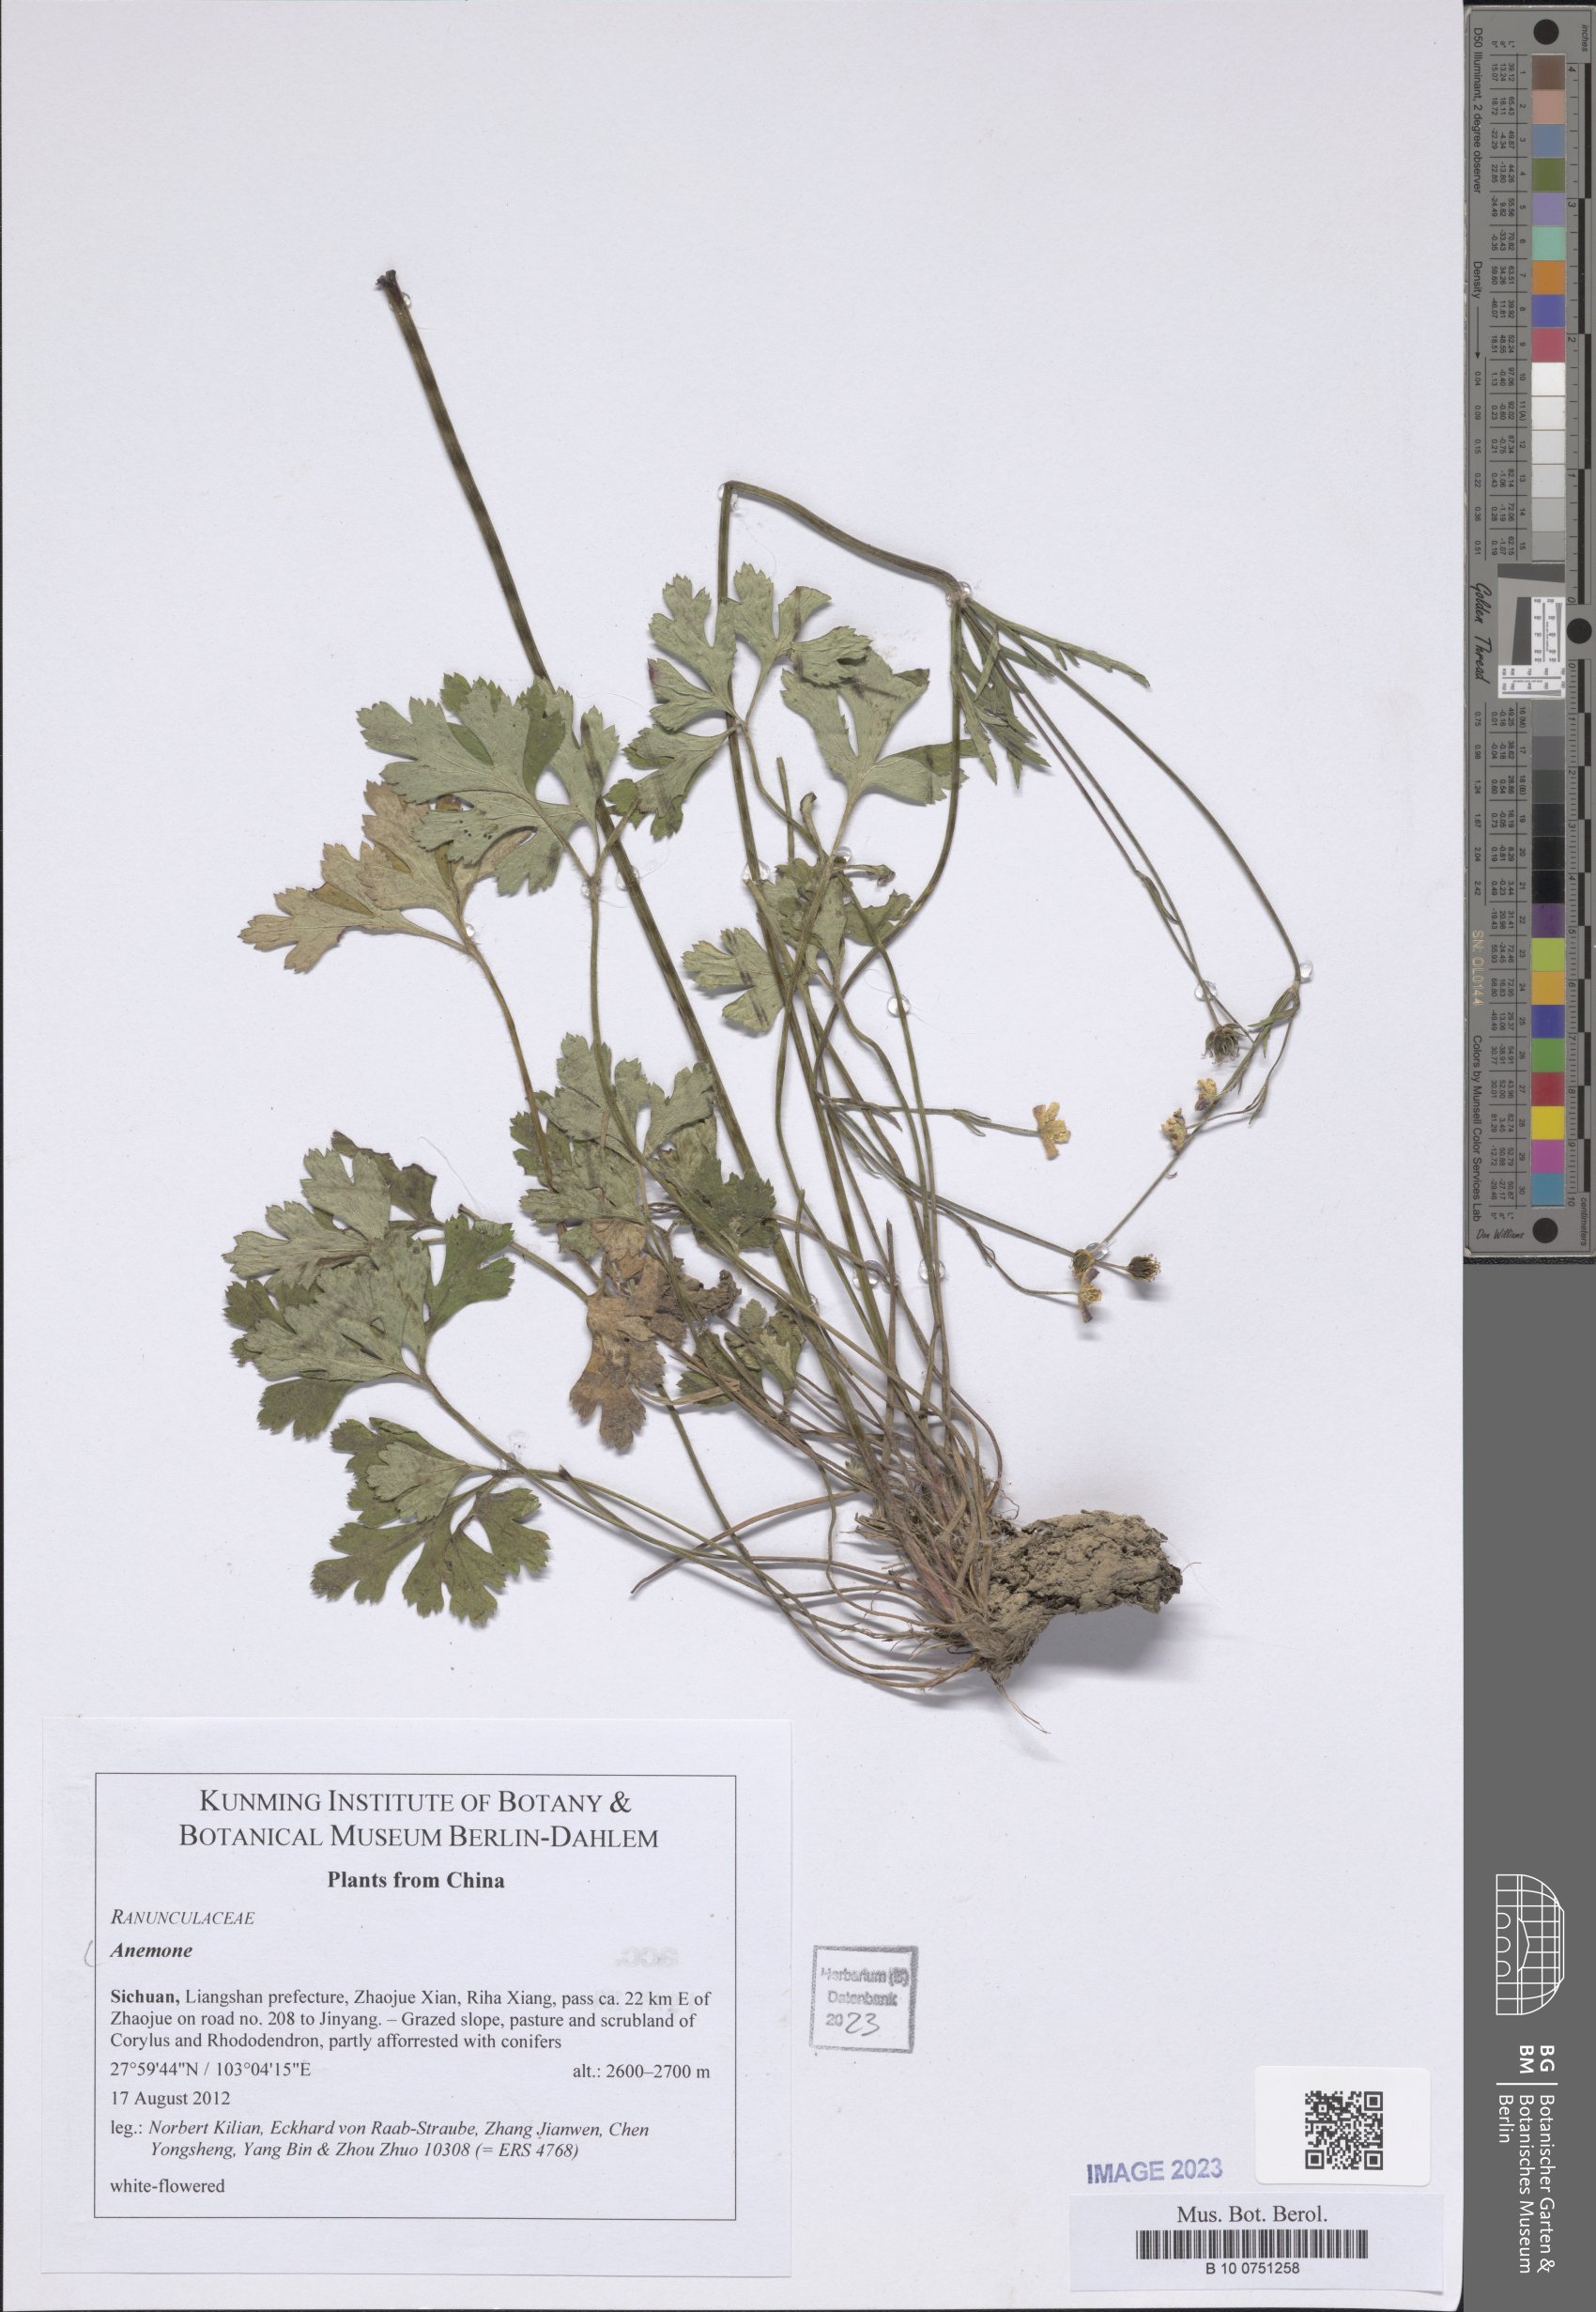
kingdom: Plantae
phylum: Tracheophyta
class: Magnoliopsida
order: Ranunculales
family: Ranunculaceae
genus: Anemone
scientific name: Anemone
